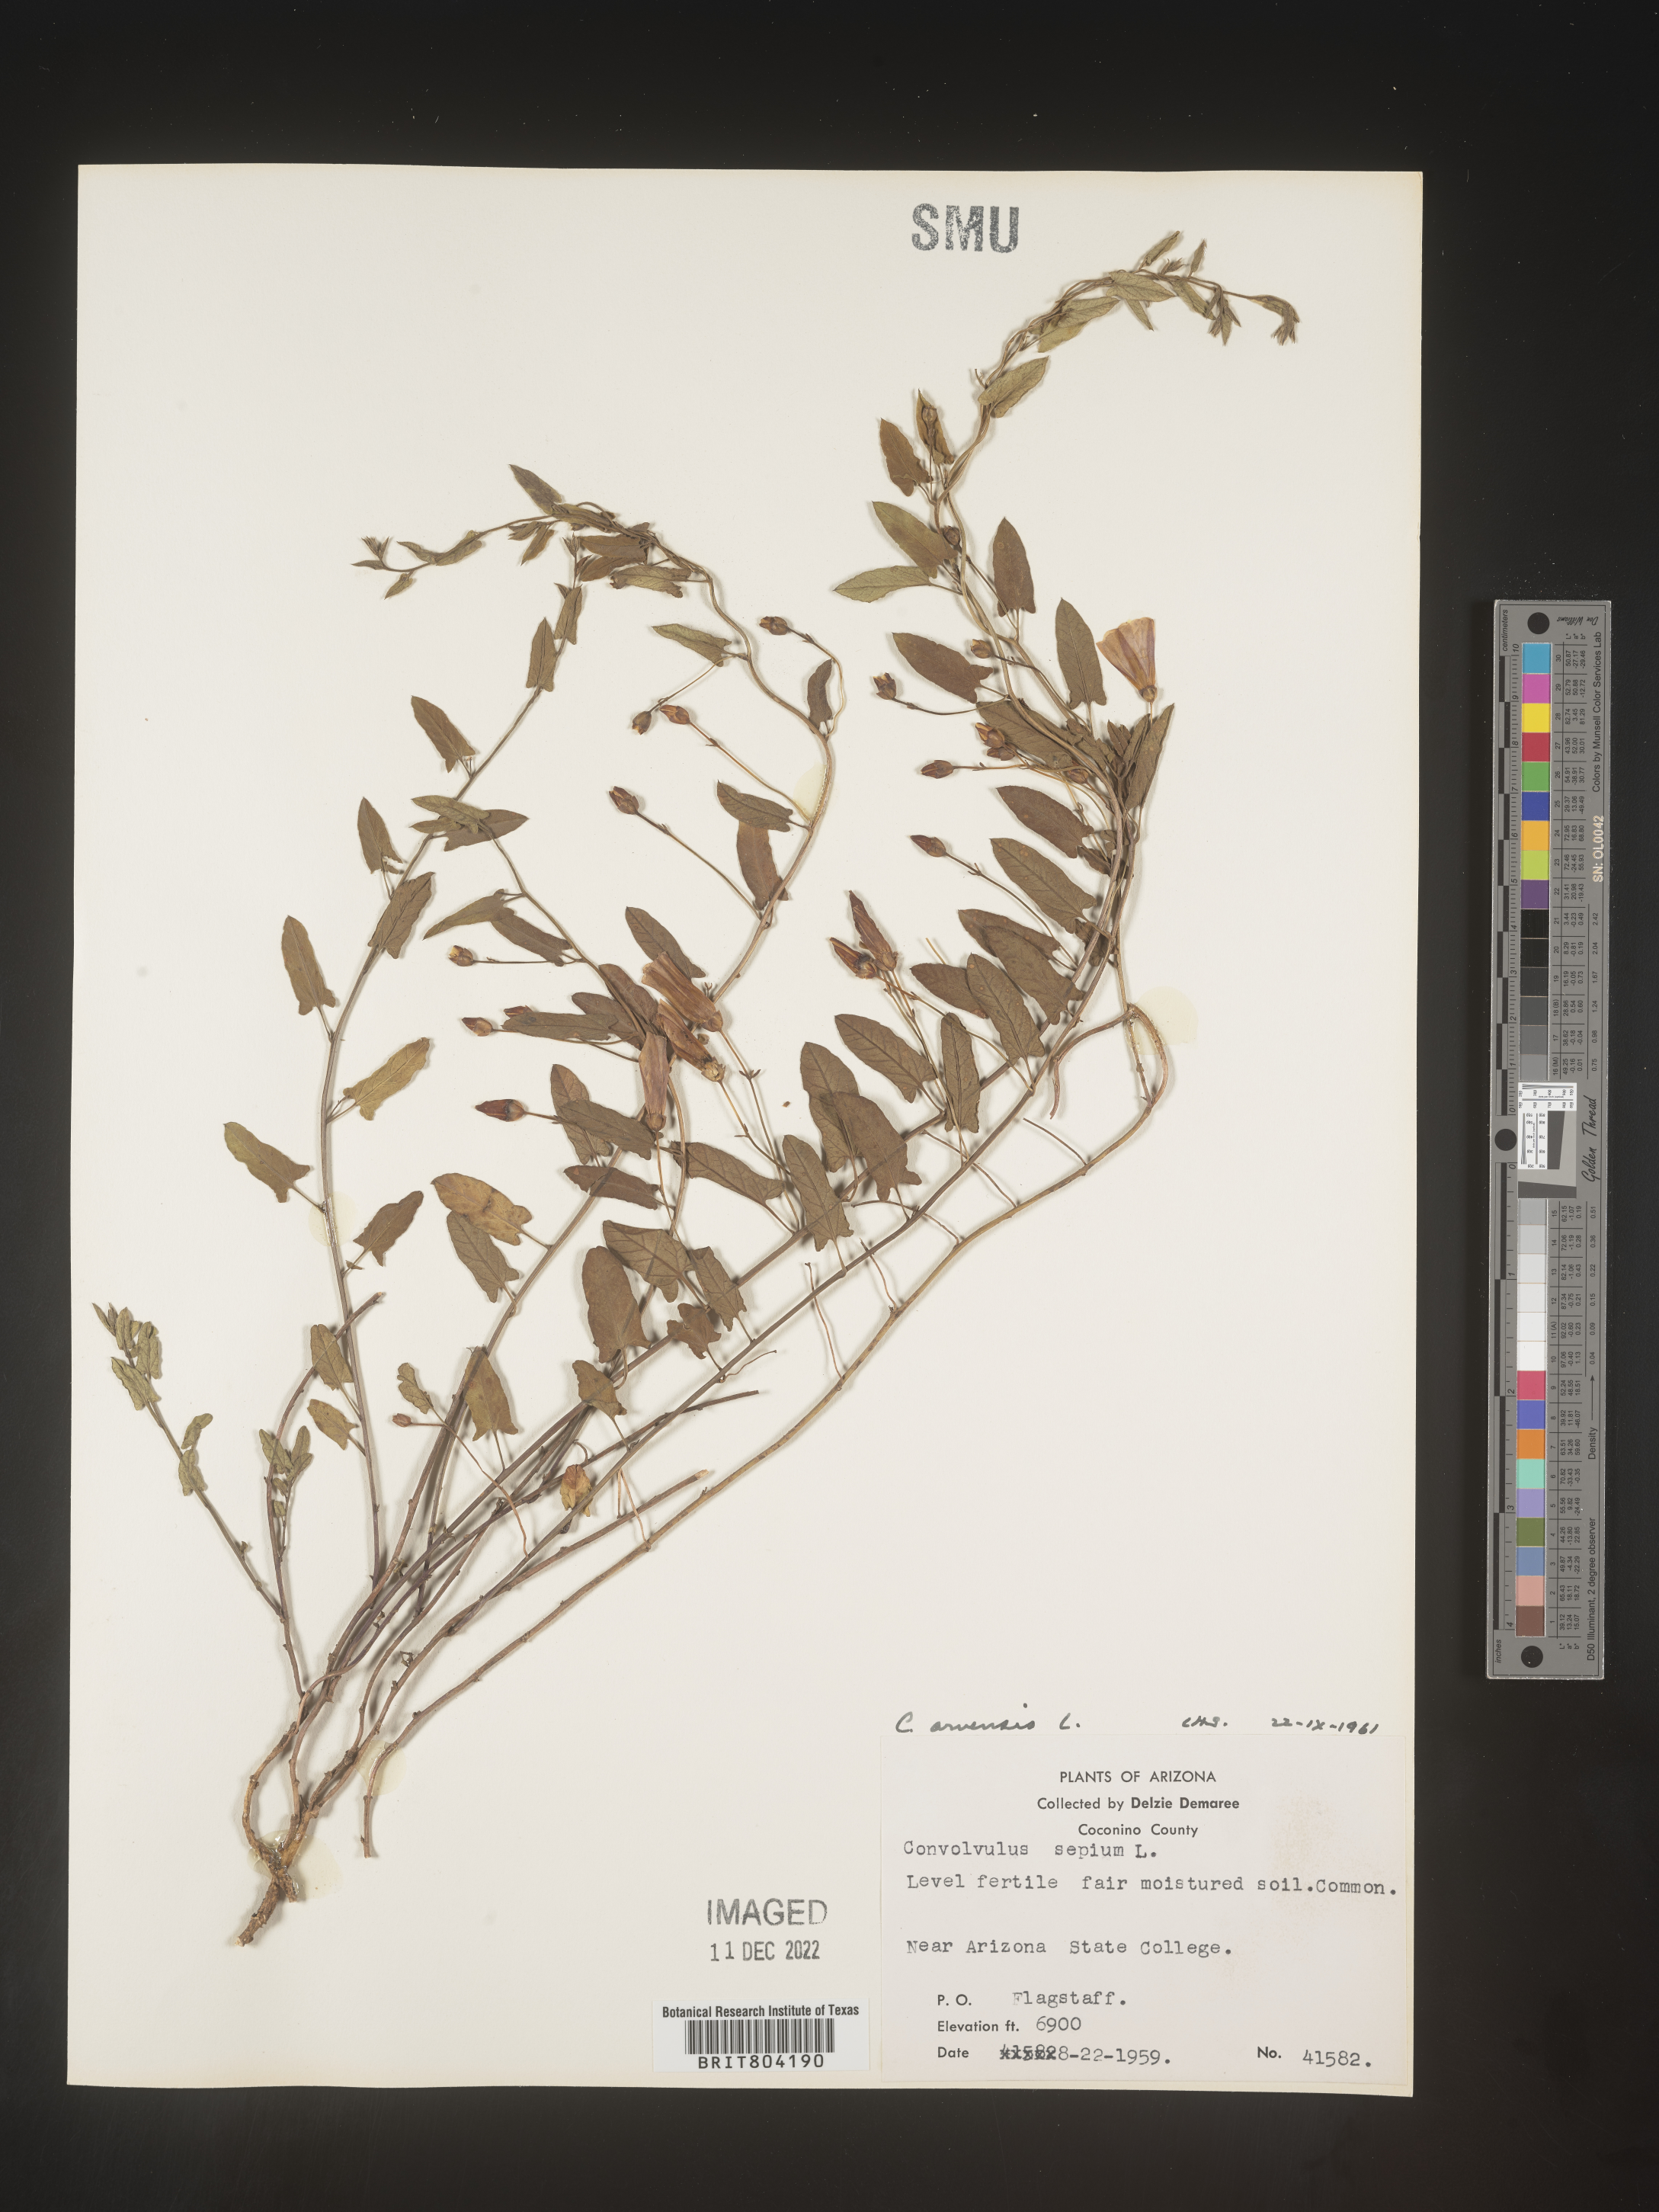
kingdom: Plantae
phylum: Tracheophyta
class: Magnoliopsida
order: Solanales
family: Convolvulaceae
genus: Convolvulus
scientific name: Convolvulus arvensis
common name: Field bindweed
